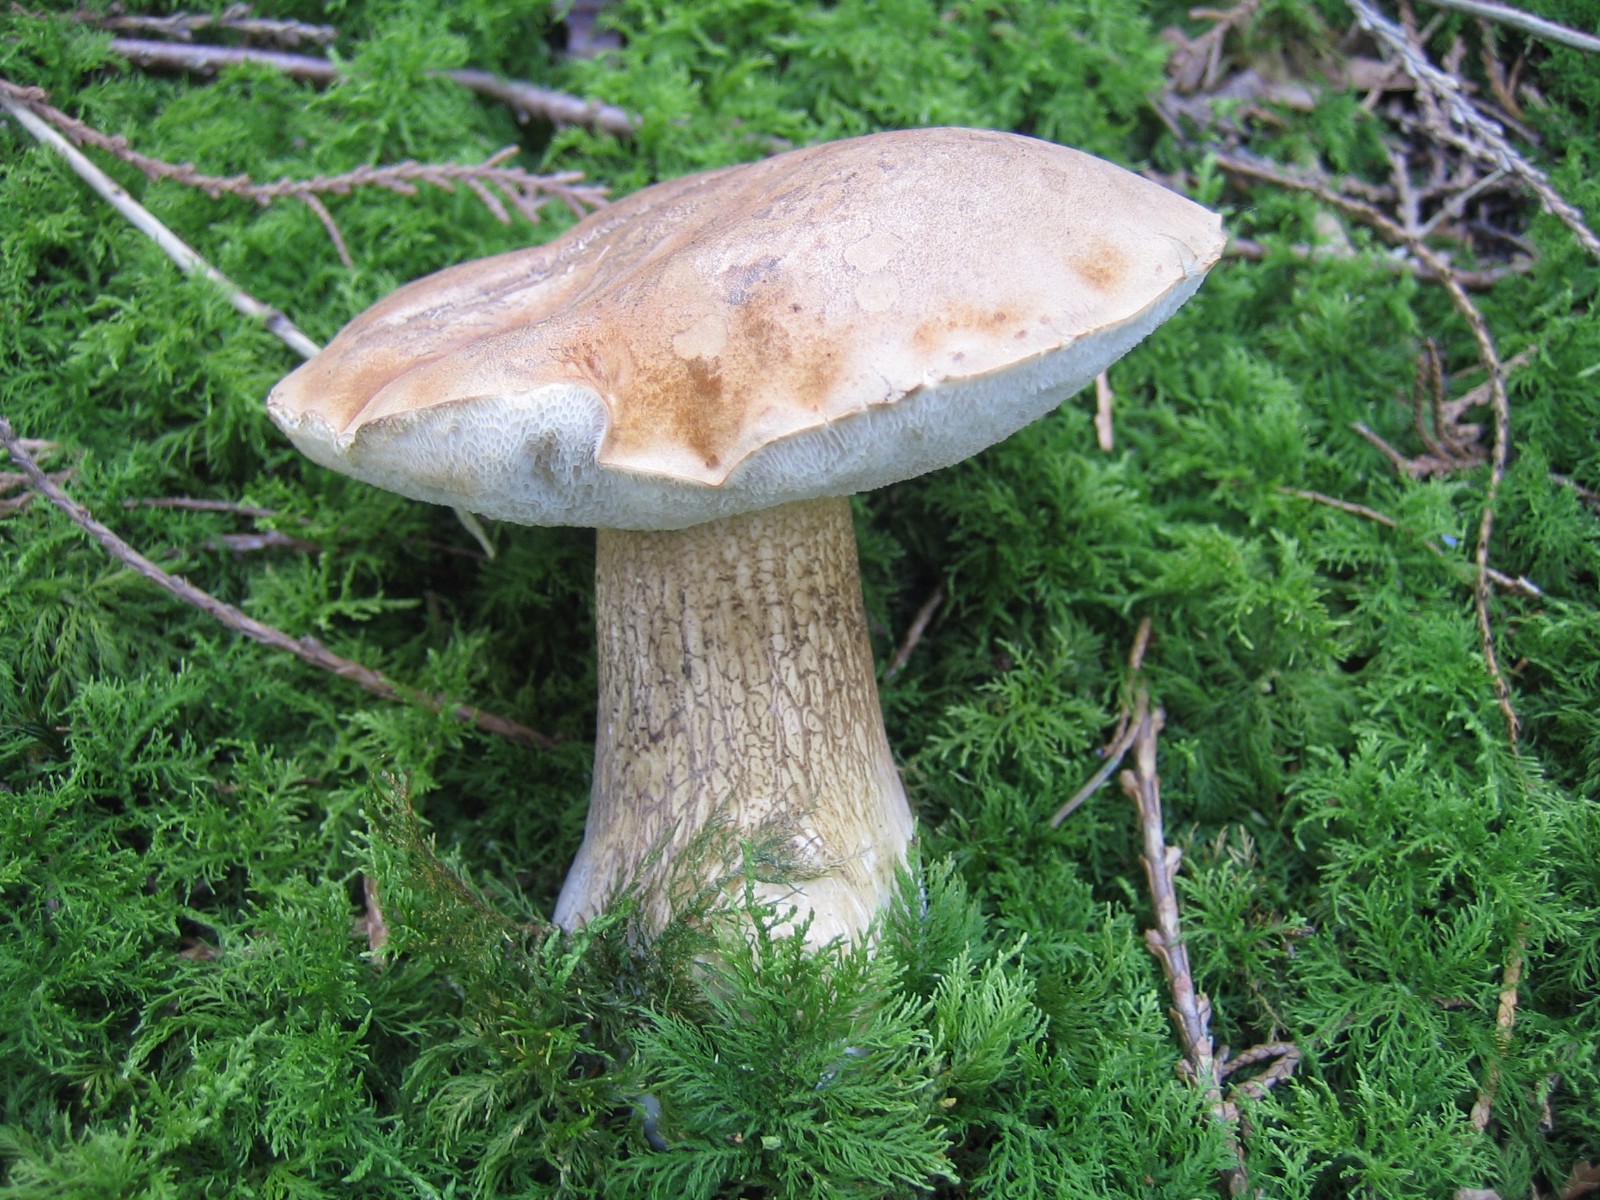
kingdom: Fungi
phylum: Basidiomycota
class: Agaricomycetes
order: Boletales
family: Boletaceae
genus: Tylopilus
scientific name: Tylopilus felleus
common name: galderørhat
